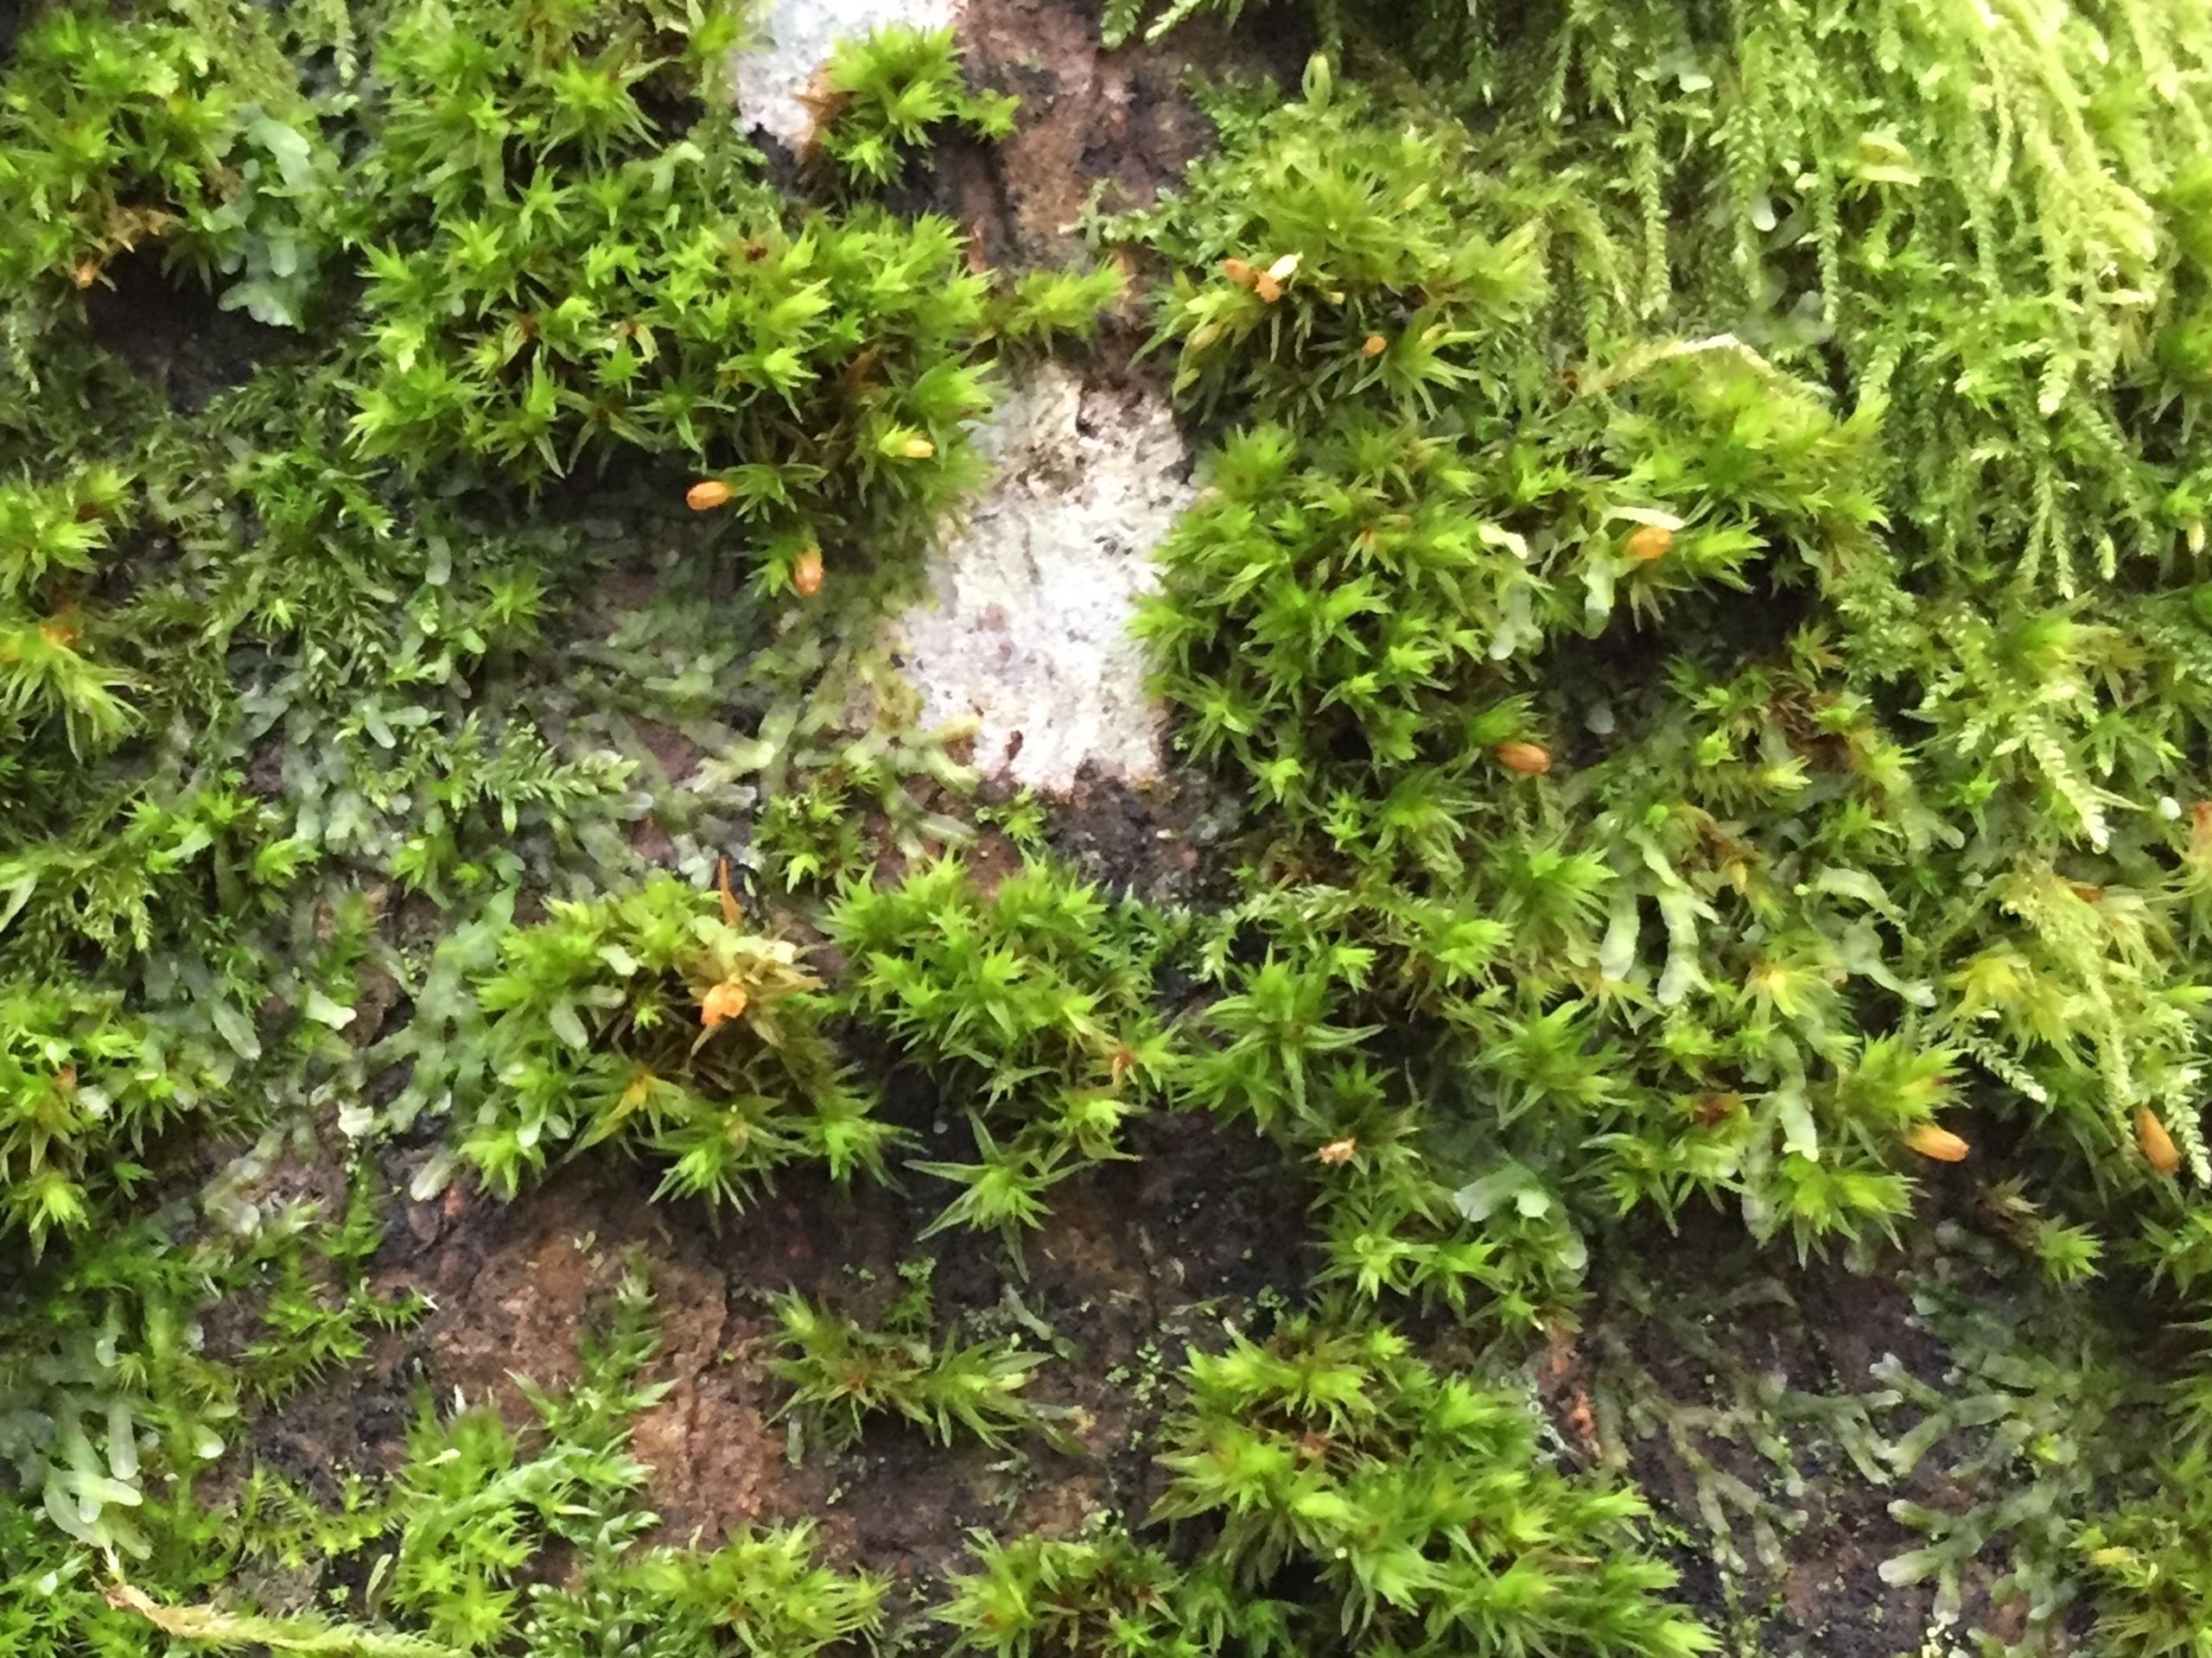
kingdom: Plantae
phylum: Bryophyta
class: Bryopsida
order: Orthotrichales
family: Orthotrichaceae
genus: Orthotrichum
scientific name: Orthotrichum
